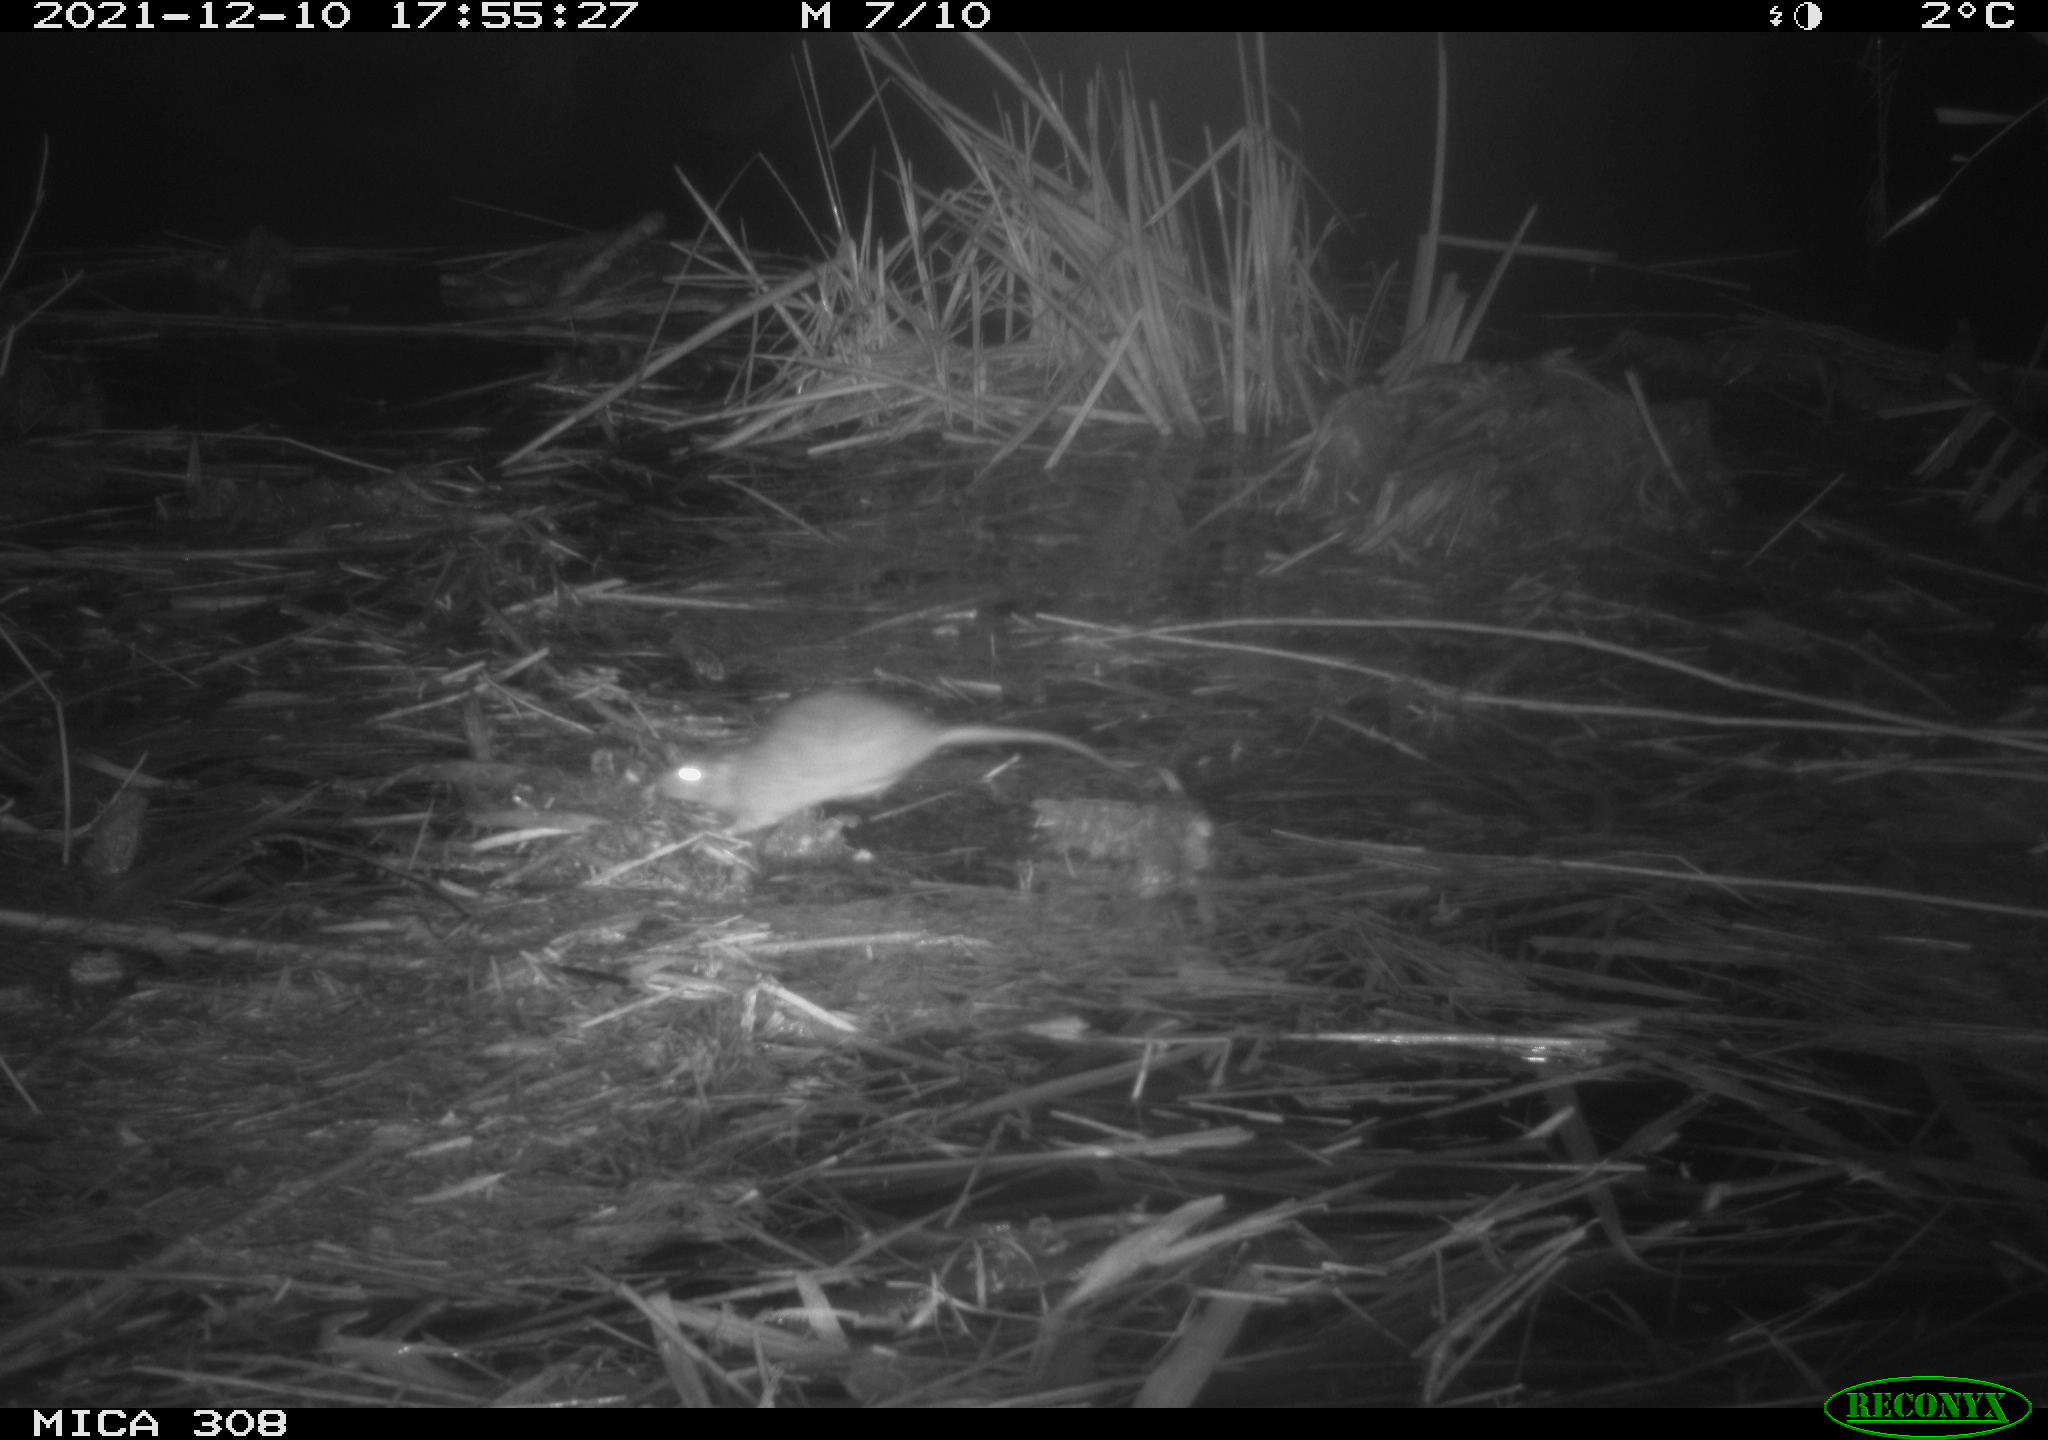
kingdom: Animalia
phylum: Chordata
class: Mammalia
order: Rodentia
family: Muridae
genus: Rattus
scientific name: Rattus norvegicus
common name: Brown rat
